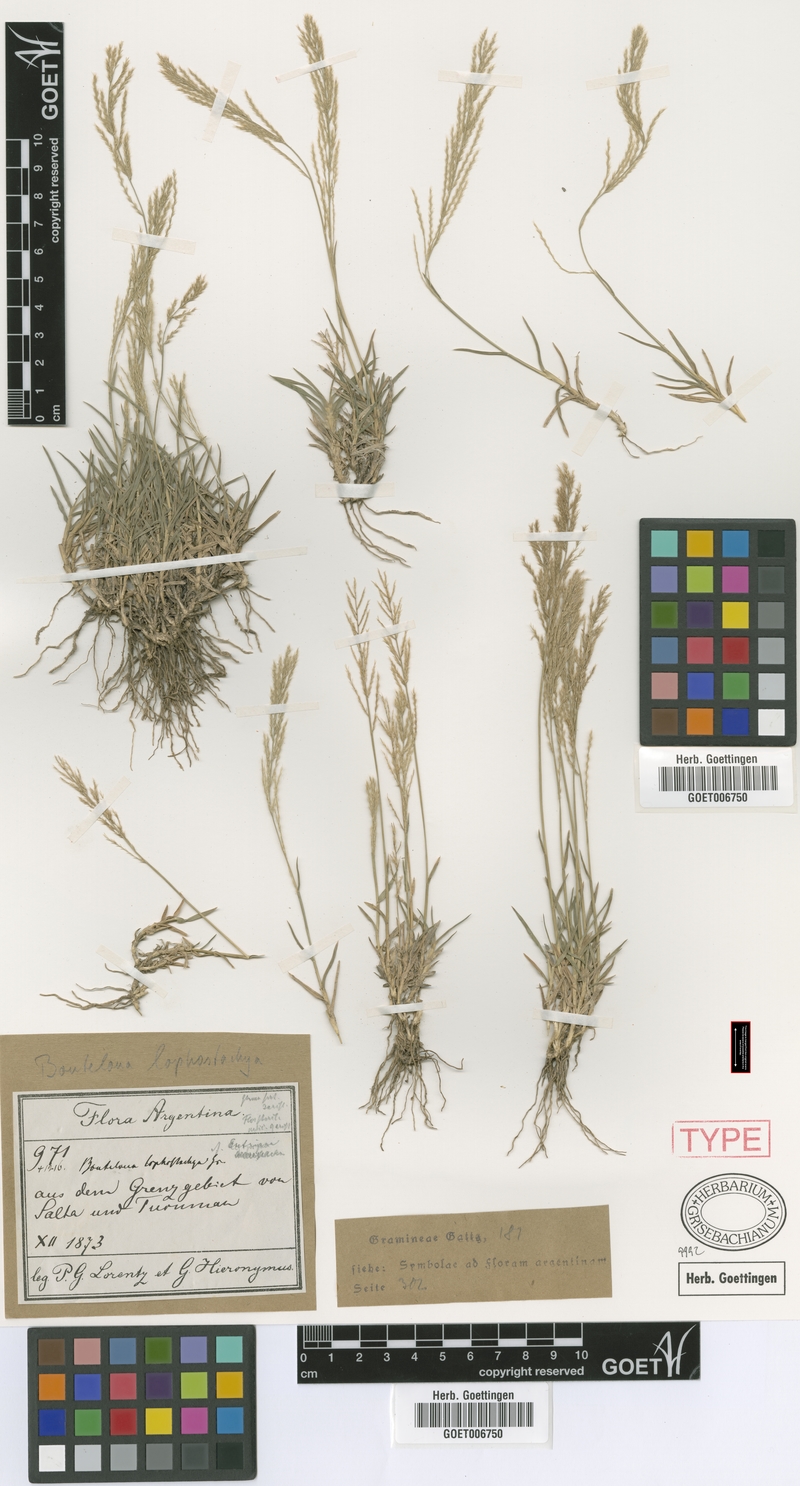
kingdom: Plantae
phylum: Tracheophyta
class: Liliopsida
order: Poales
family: Poaceae
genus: Neobouteloua
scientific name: Neobouteloua lophostachya
